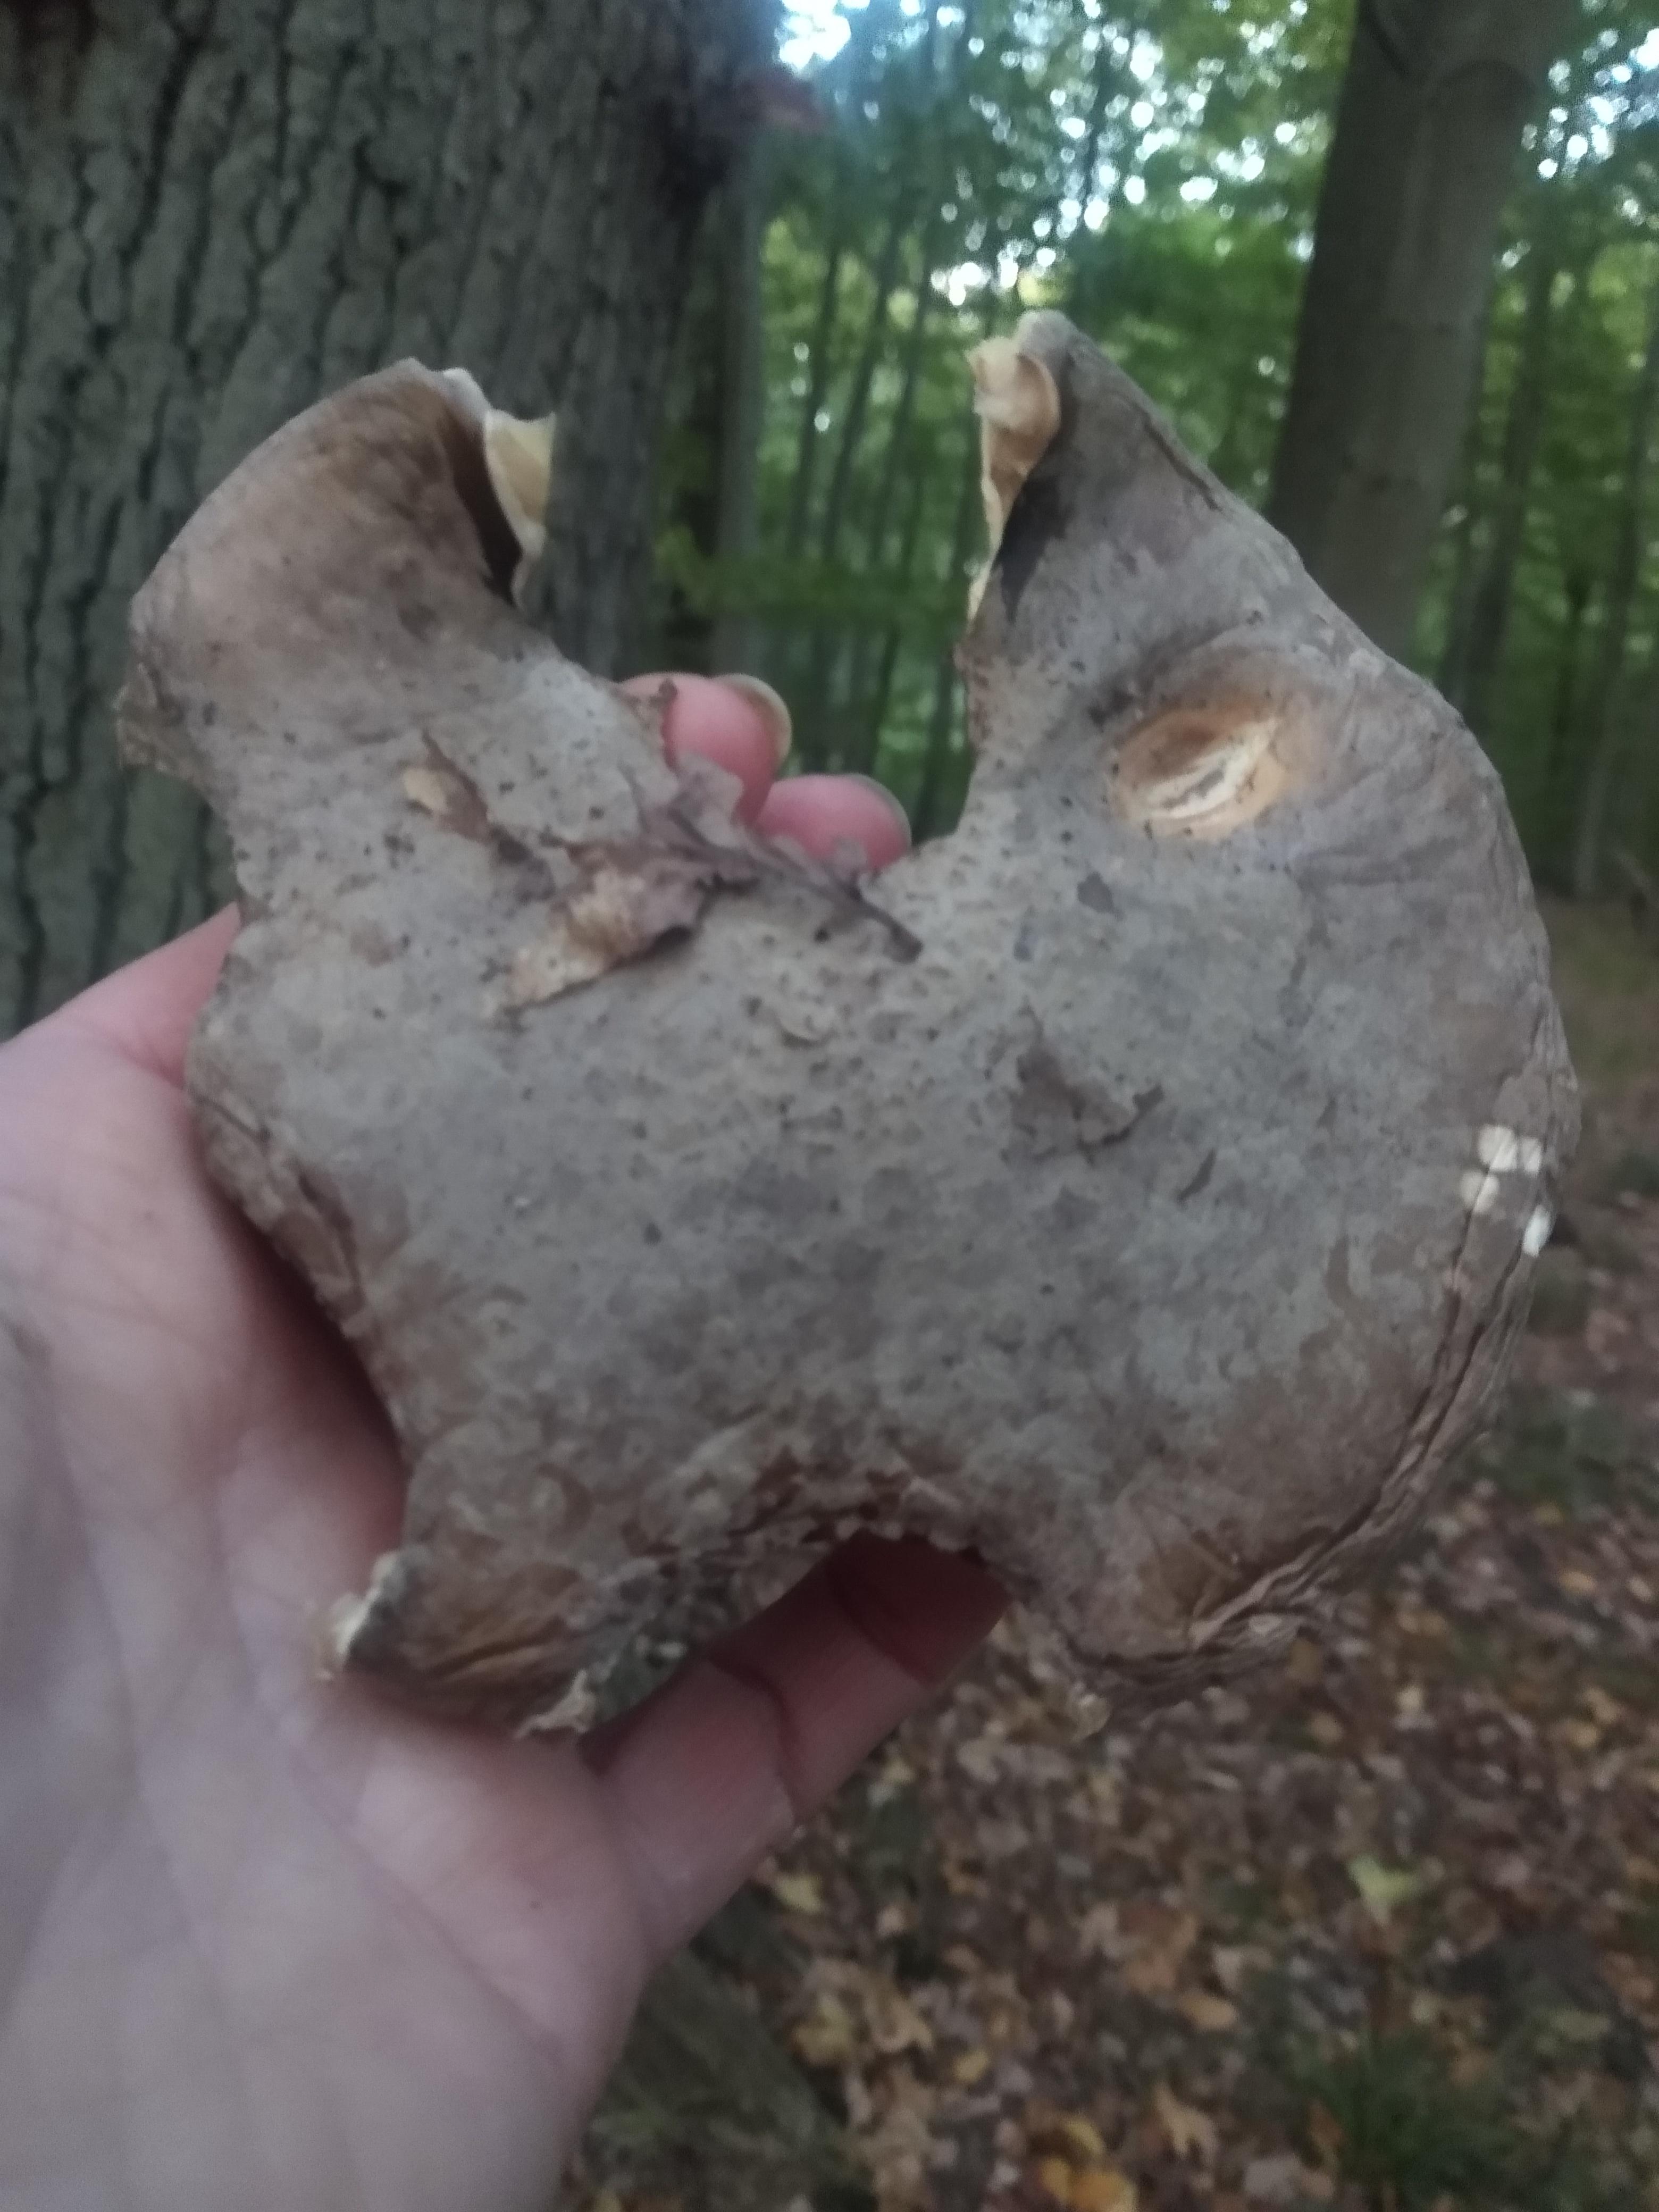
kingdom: Fungi
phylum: Basidiomycota
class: Agaricomycetes
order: Agaricales
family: Amanitaceae
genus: Amanita
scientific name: Amanita
